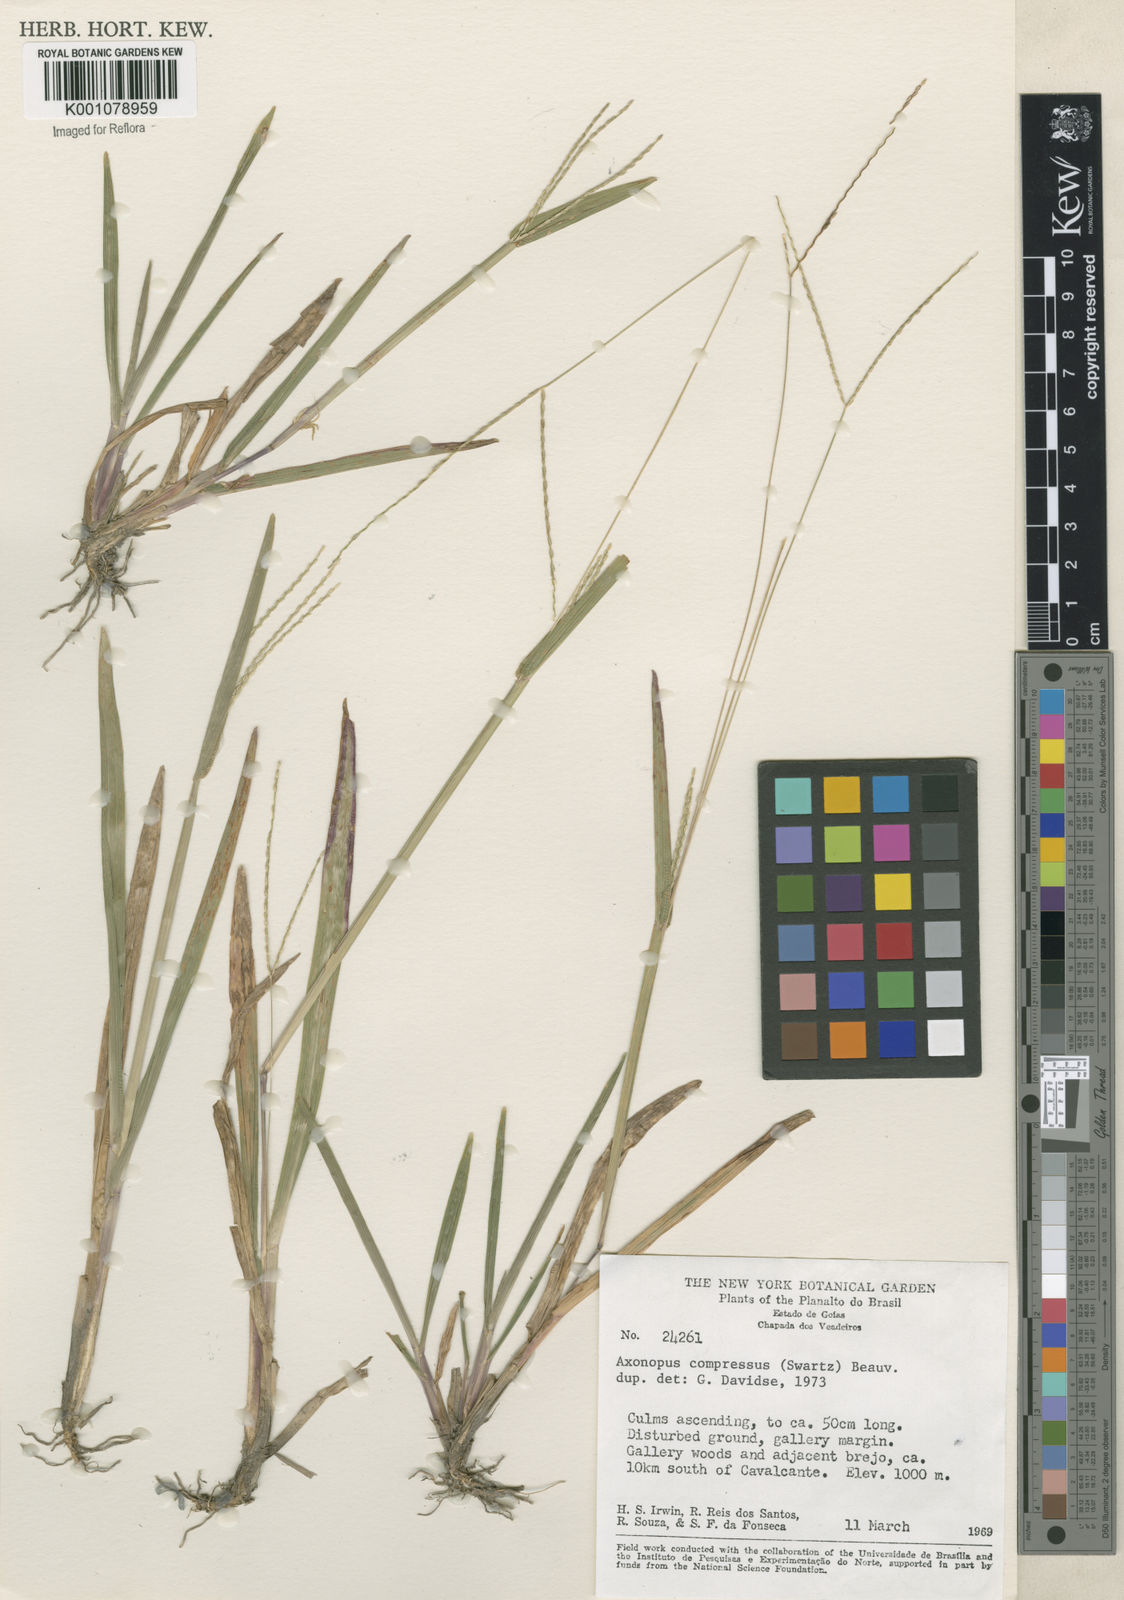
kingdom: Plantae
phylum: Tracheophyta
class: Liliopsida
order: Poales
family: Poaceae
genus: Axonopus
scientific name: Axonopus compressus
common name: American carpet grass
